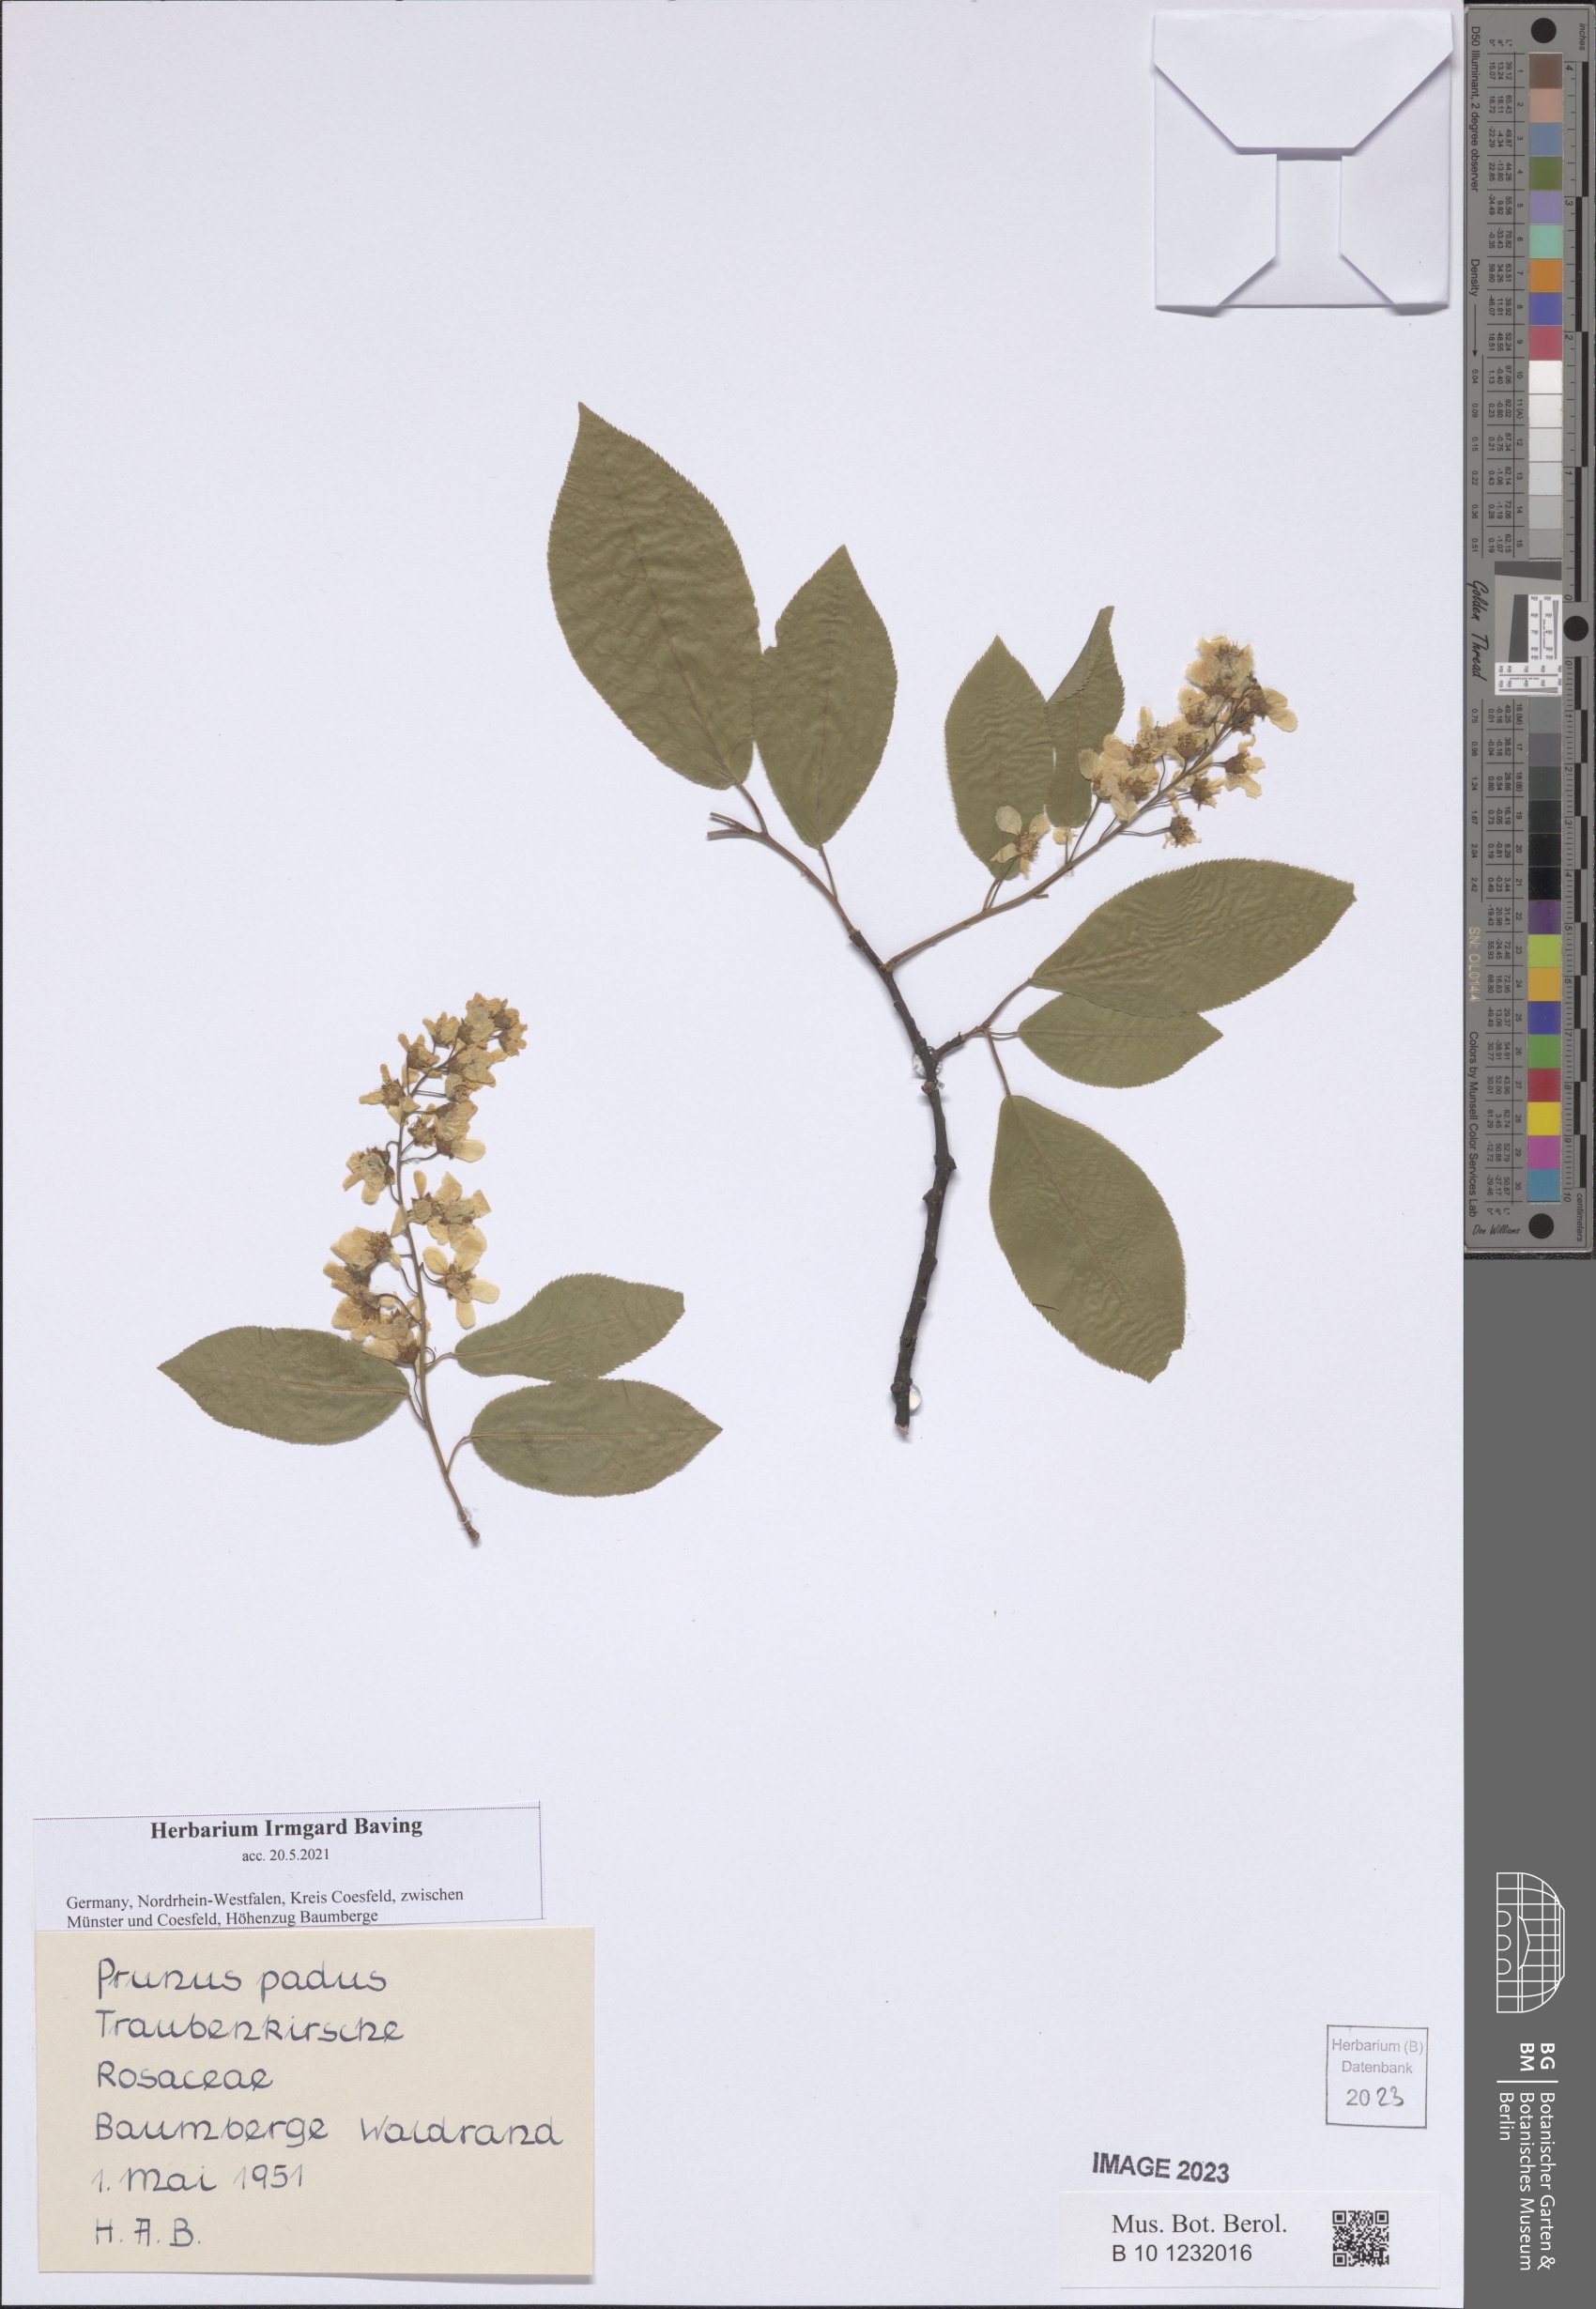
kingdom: Plantae
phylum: Tracheophyta
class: Magnoliopsida
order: Rosales
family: Rosaceae
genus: Prunus
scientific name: Prunus padus
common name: Bird cherry
